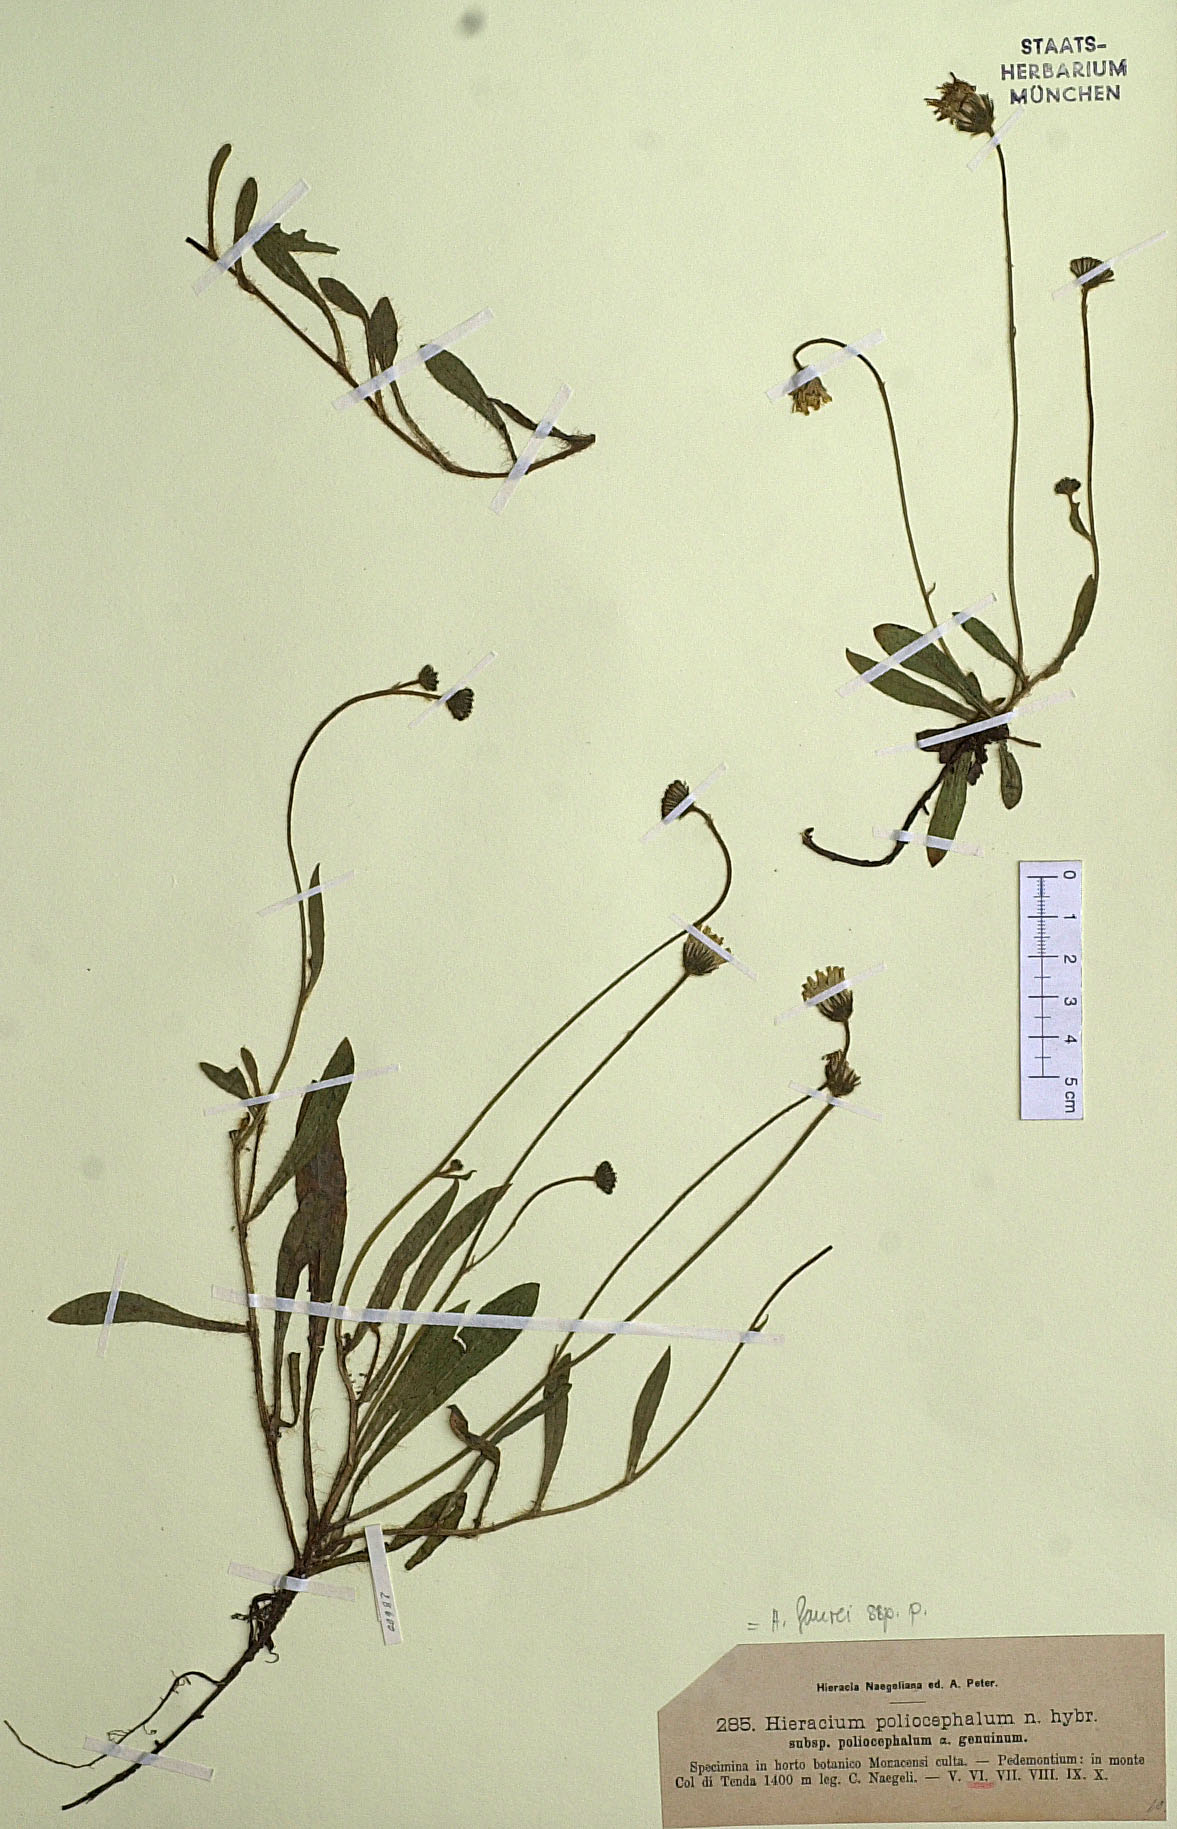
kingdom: Plantae
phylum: Tracheophyta
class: Magnoliopsida
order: Asterales
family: Asteraceae
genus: Pilosella
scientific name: Pilosella faurei
